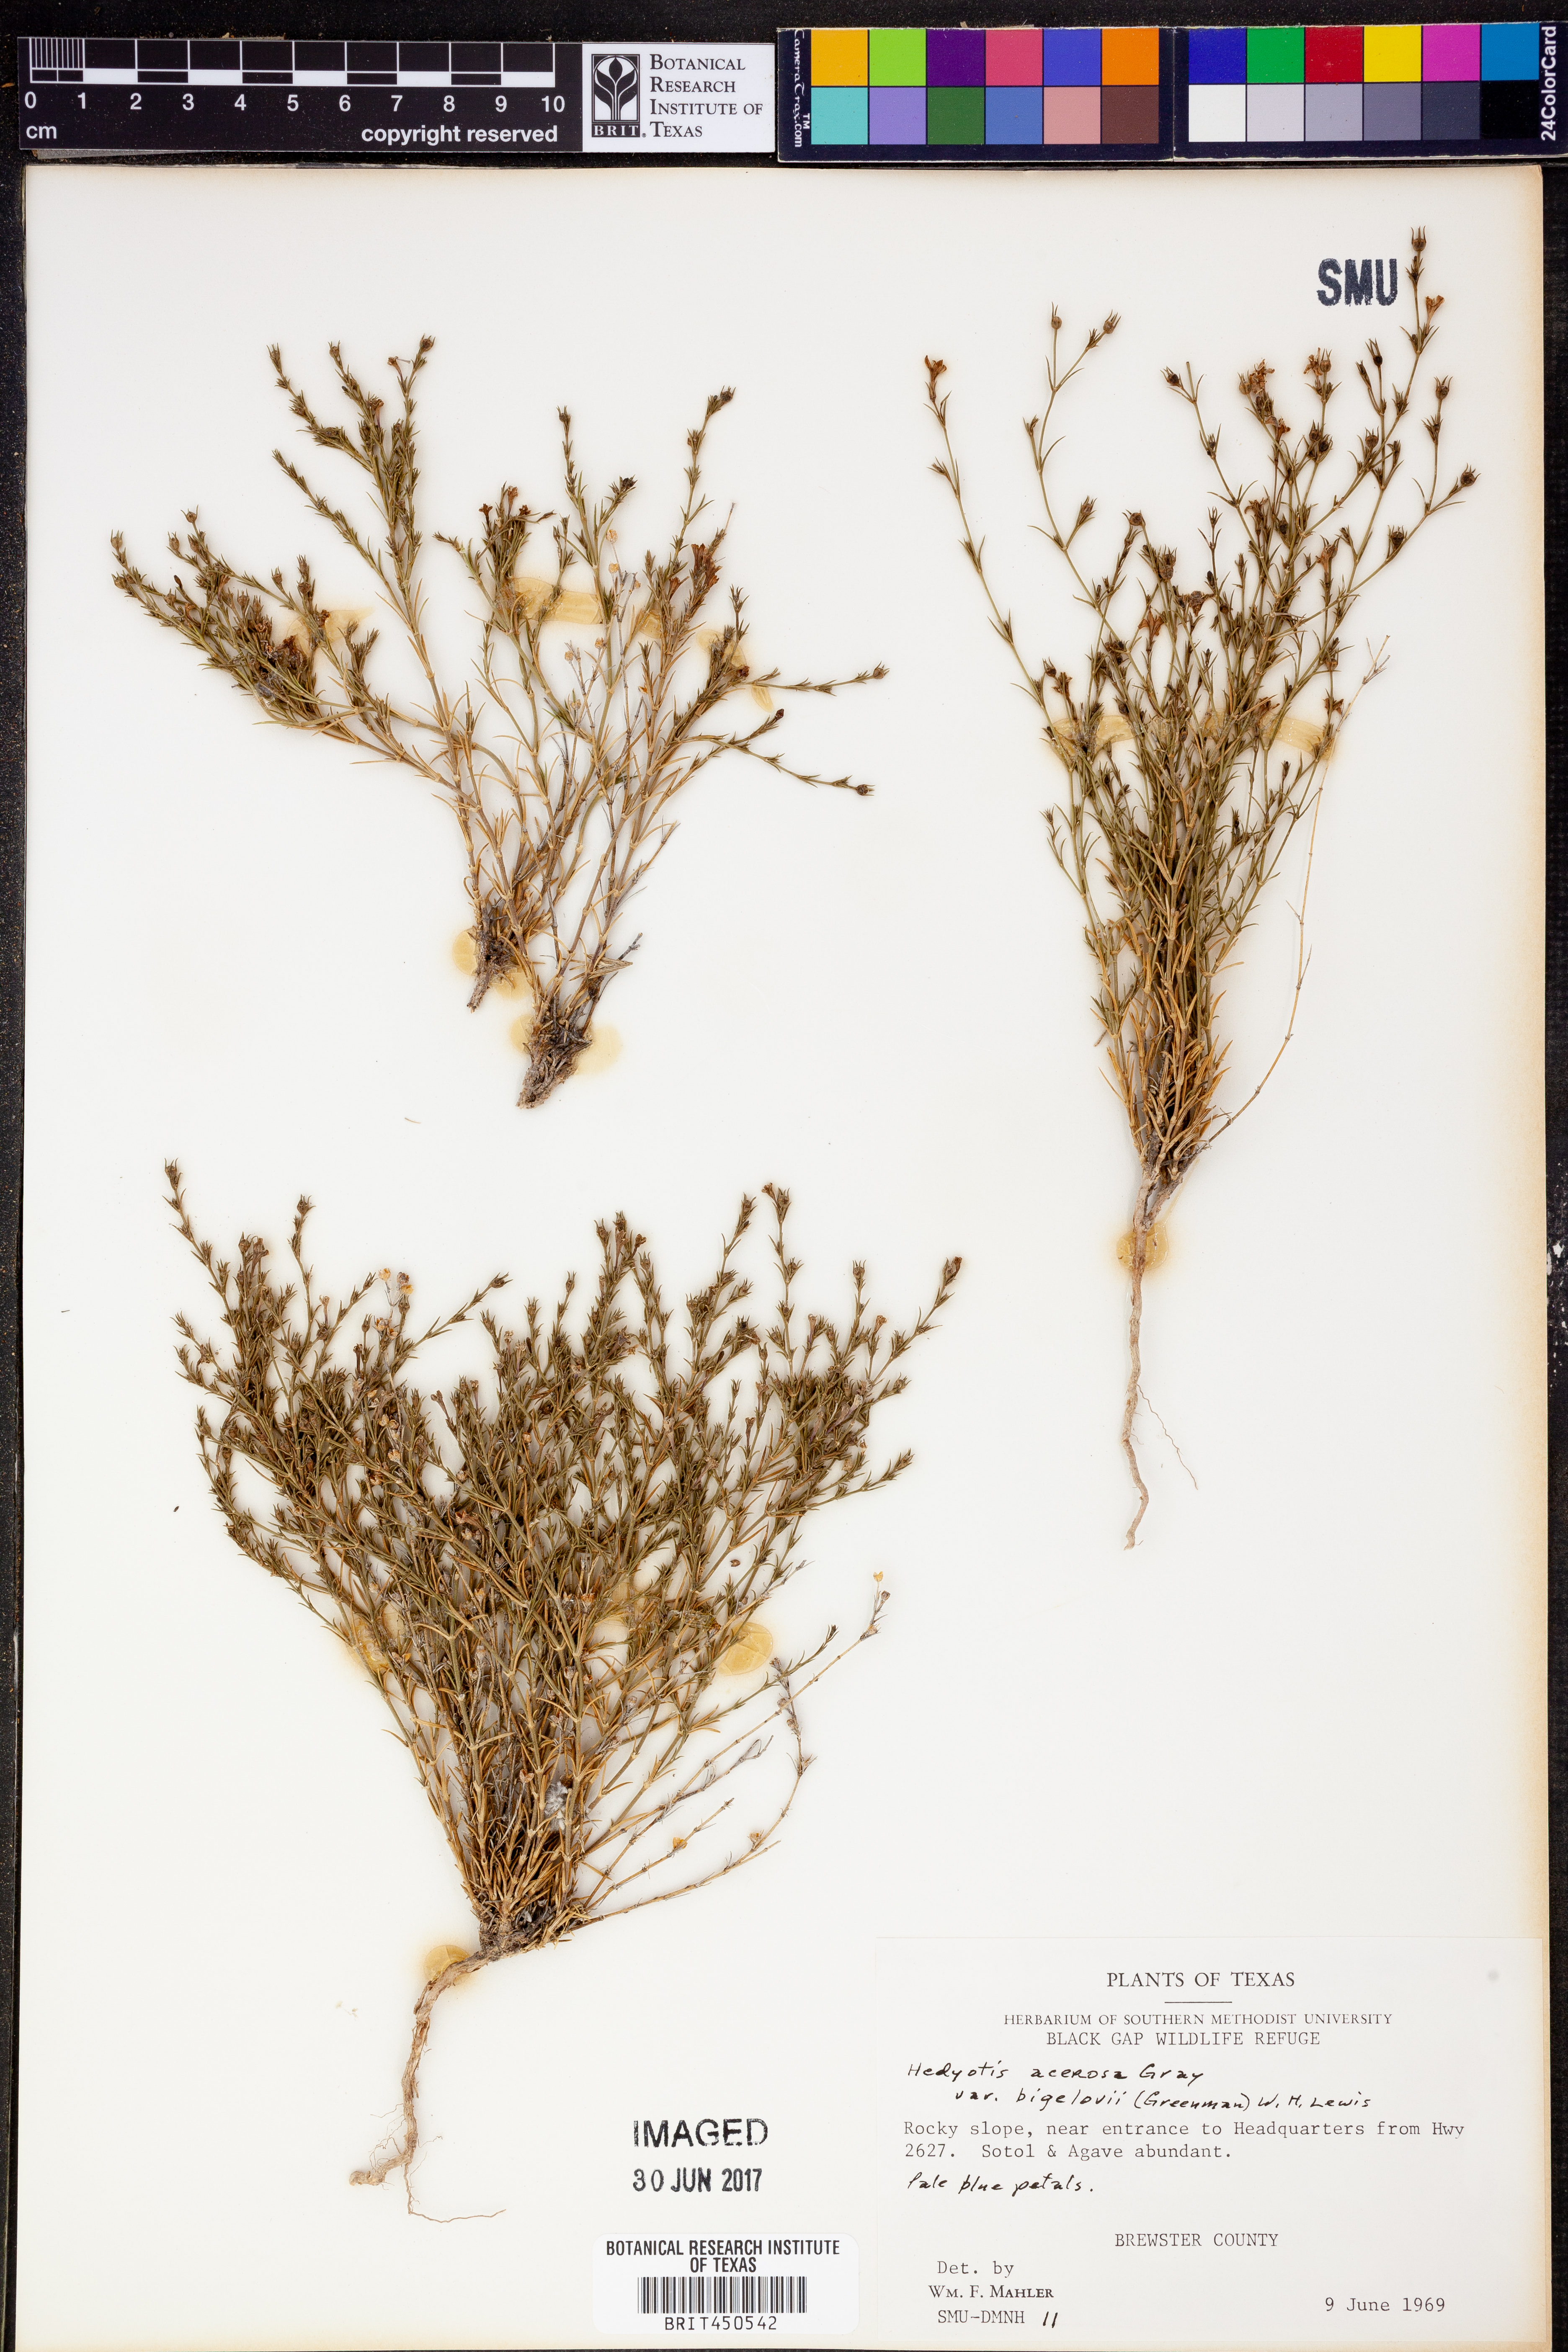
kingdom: Plantae
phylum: Tracheophyta
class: Magnoliopsida
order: Gentianales
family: Rubiaceae
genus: Houstonia
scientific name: Houstonia acerosa
